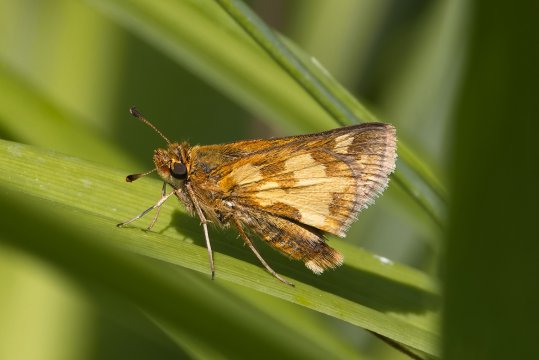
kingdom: Animalia
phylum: Arthropoda
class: Insecta
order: Lepidoptera
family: Hesperiidae
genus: Polites
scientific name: Polites coras
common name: Peck's Skipper
